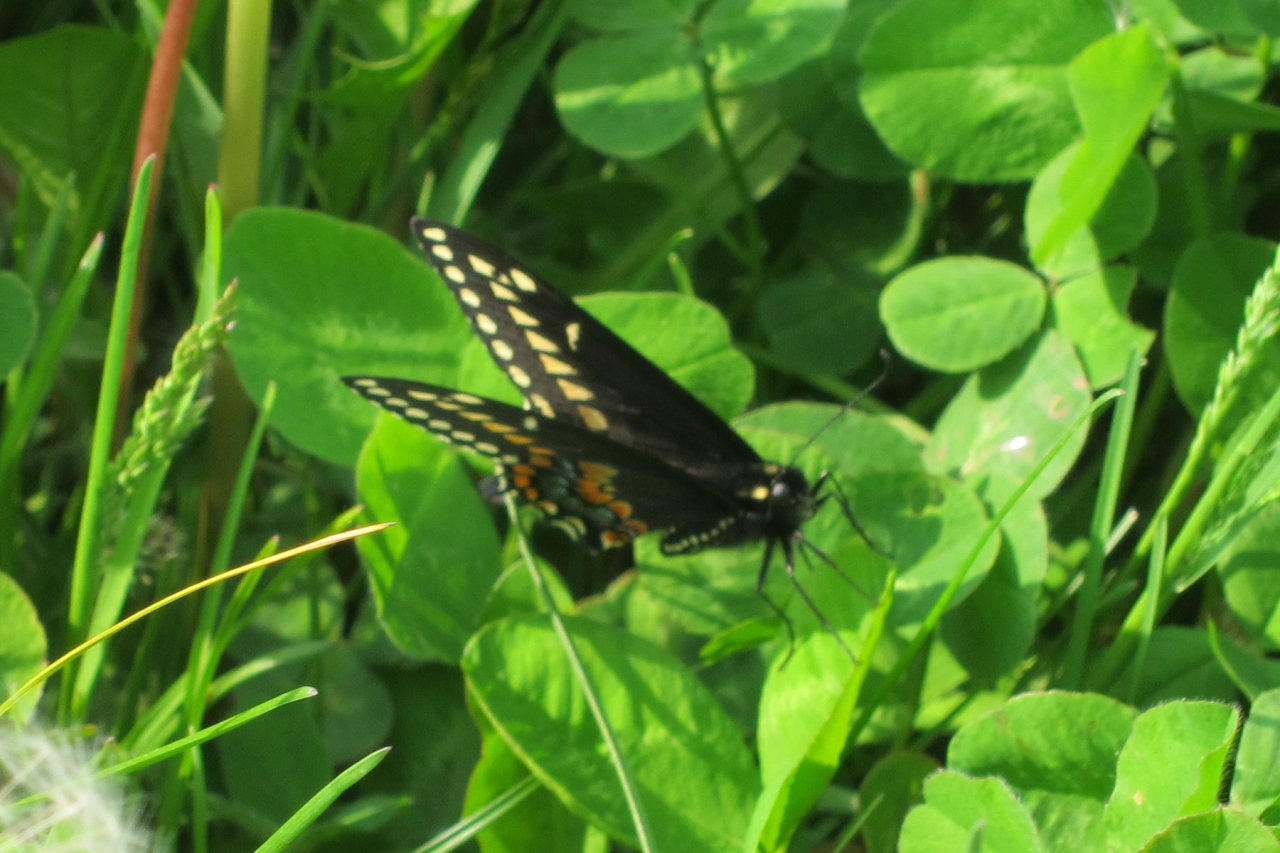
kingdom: Animalia
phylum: Arthropoda
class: Insecta
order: Lepidoptera
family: Papilionidae
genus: Papilio
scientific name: Papilio polyxenes
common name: Black Swallowtail
